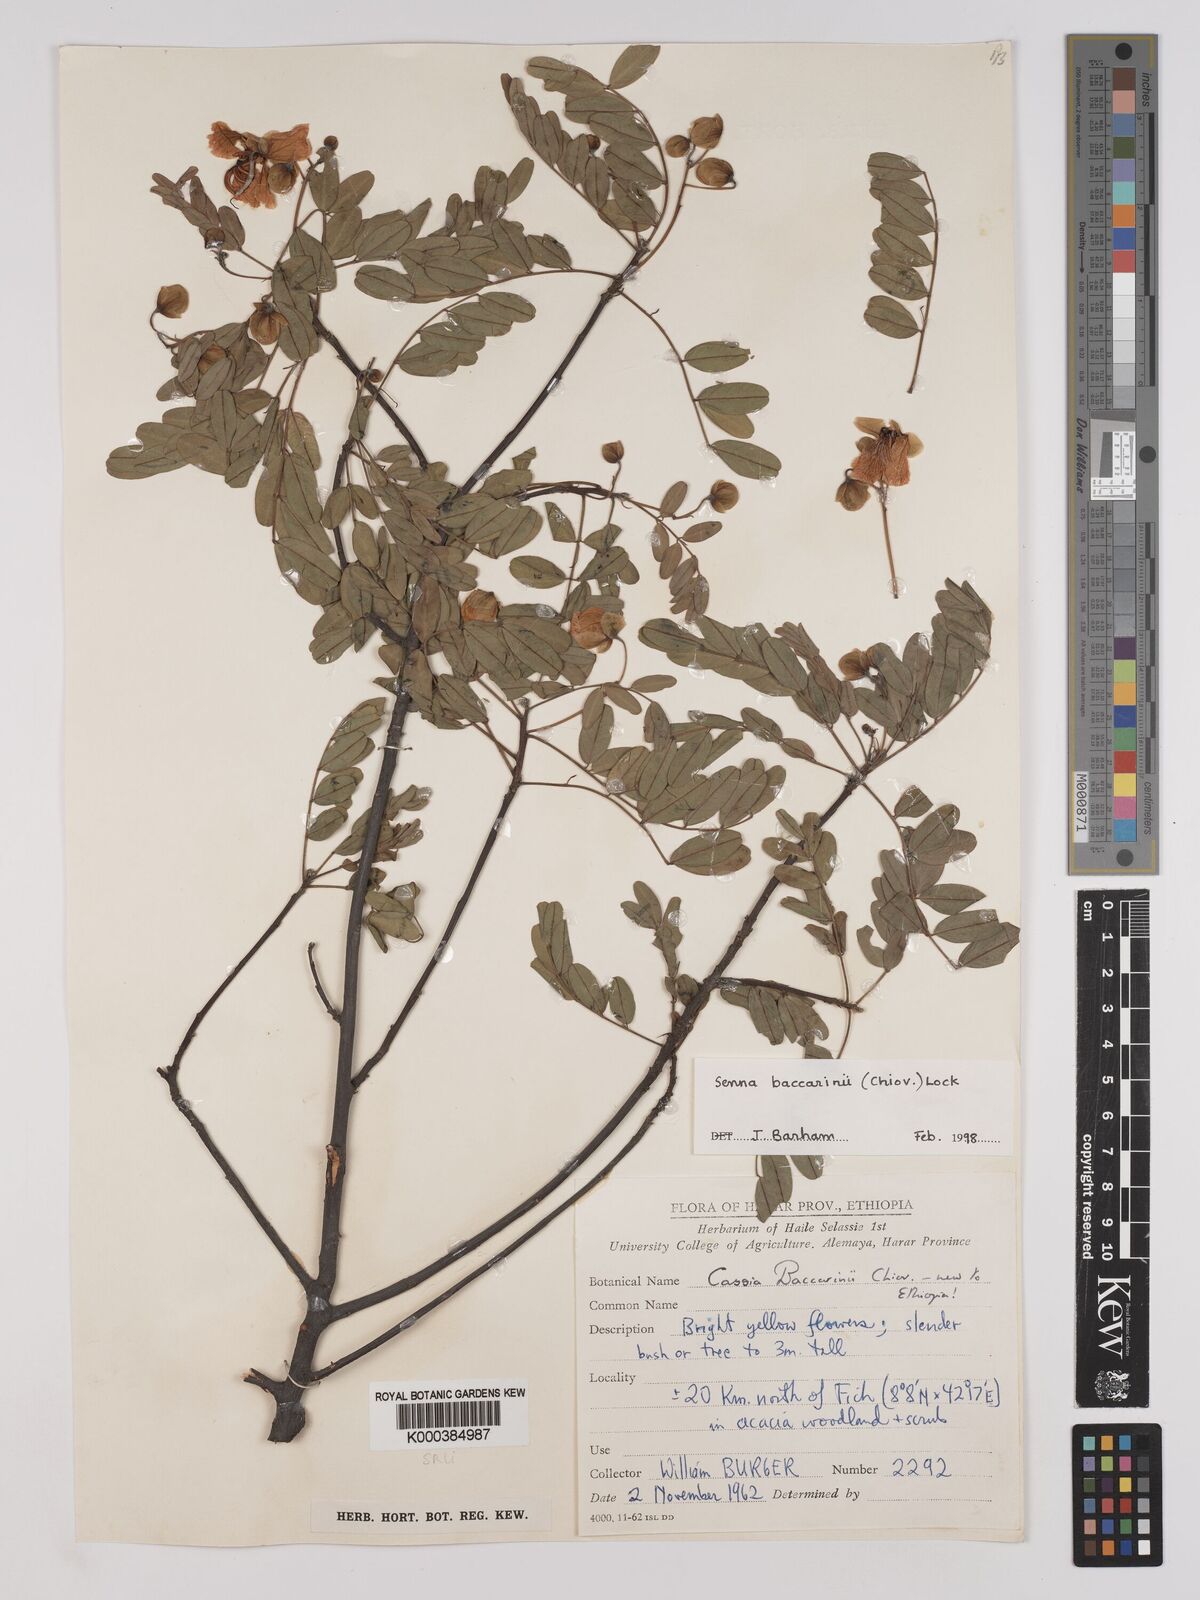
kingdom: Plantae
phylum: Tracheophyta
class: Magnoliopsida
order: Fabales
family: Fabaceae
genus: Senna
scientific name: Senna baccarinii
